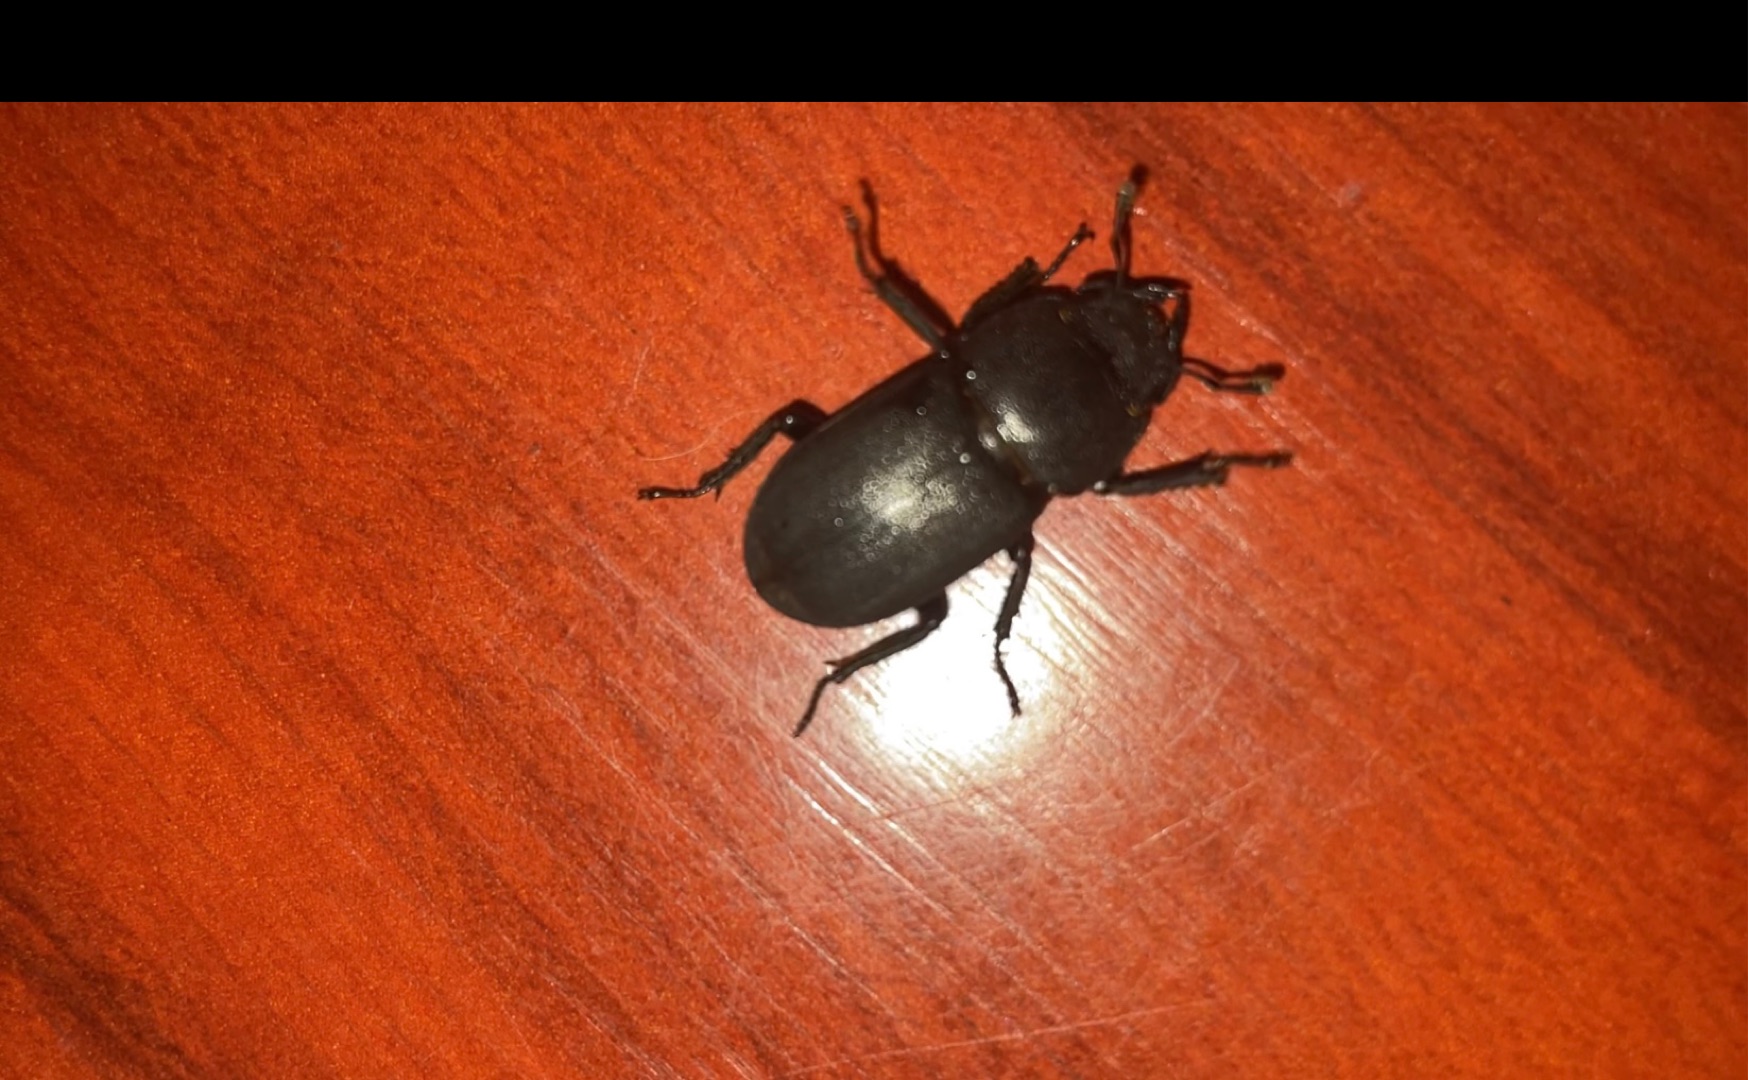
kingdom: Animalia
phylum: Arthropoda
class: Insecta
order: Coleoptera
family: Lucanidae
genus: Dorcus
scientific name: Dorcus parallelipipedus
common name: Bøghjort
